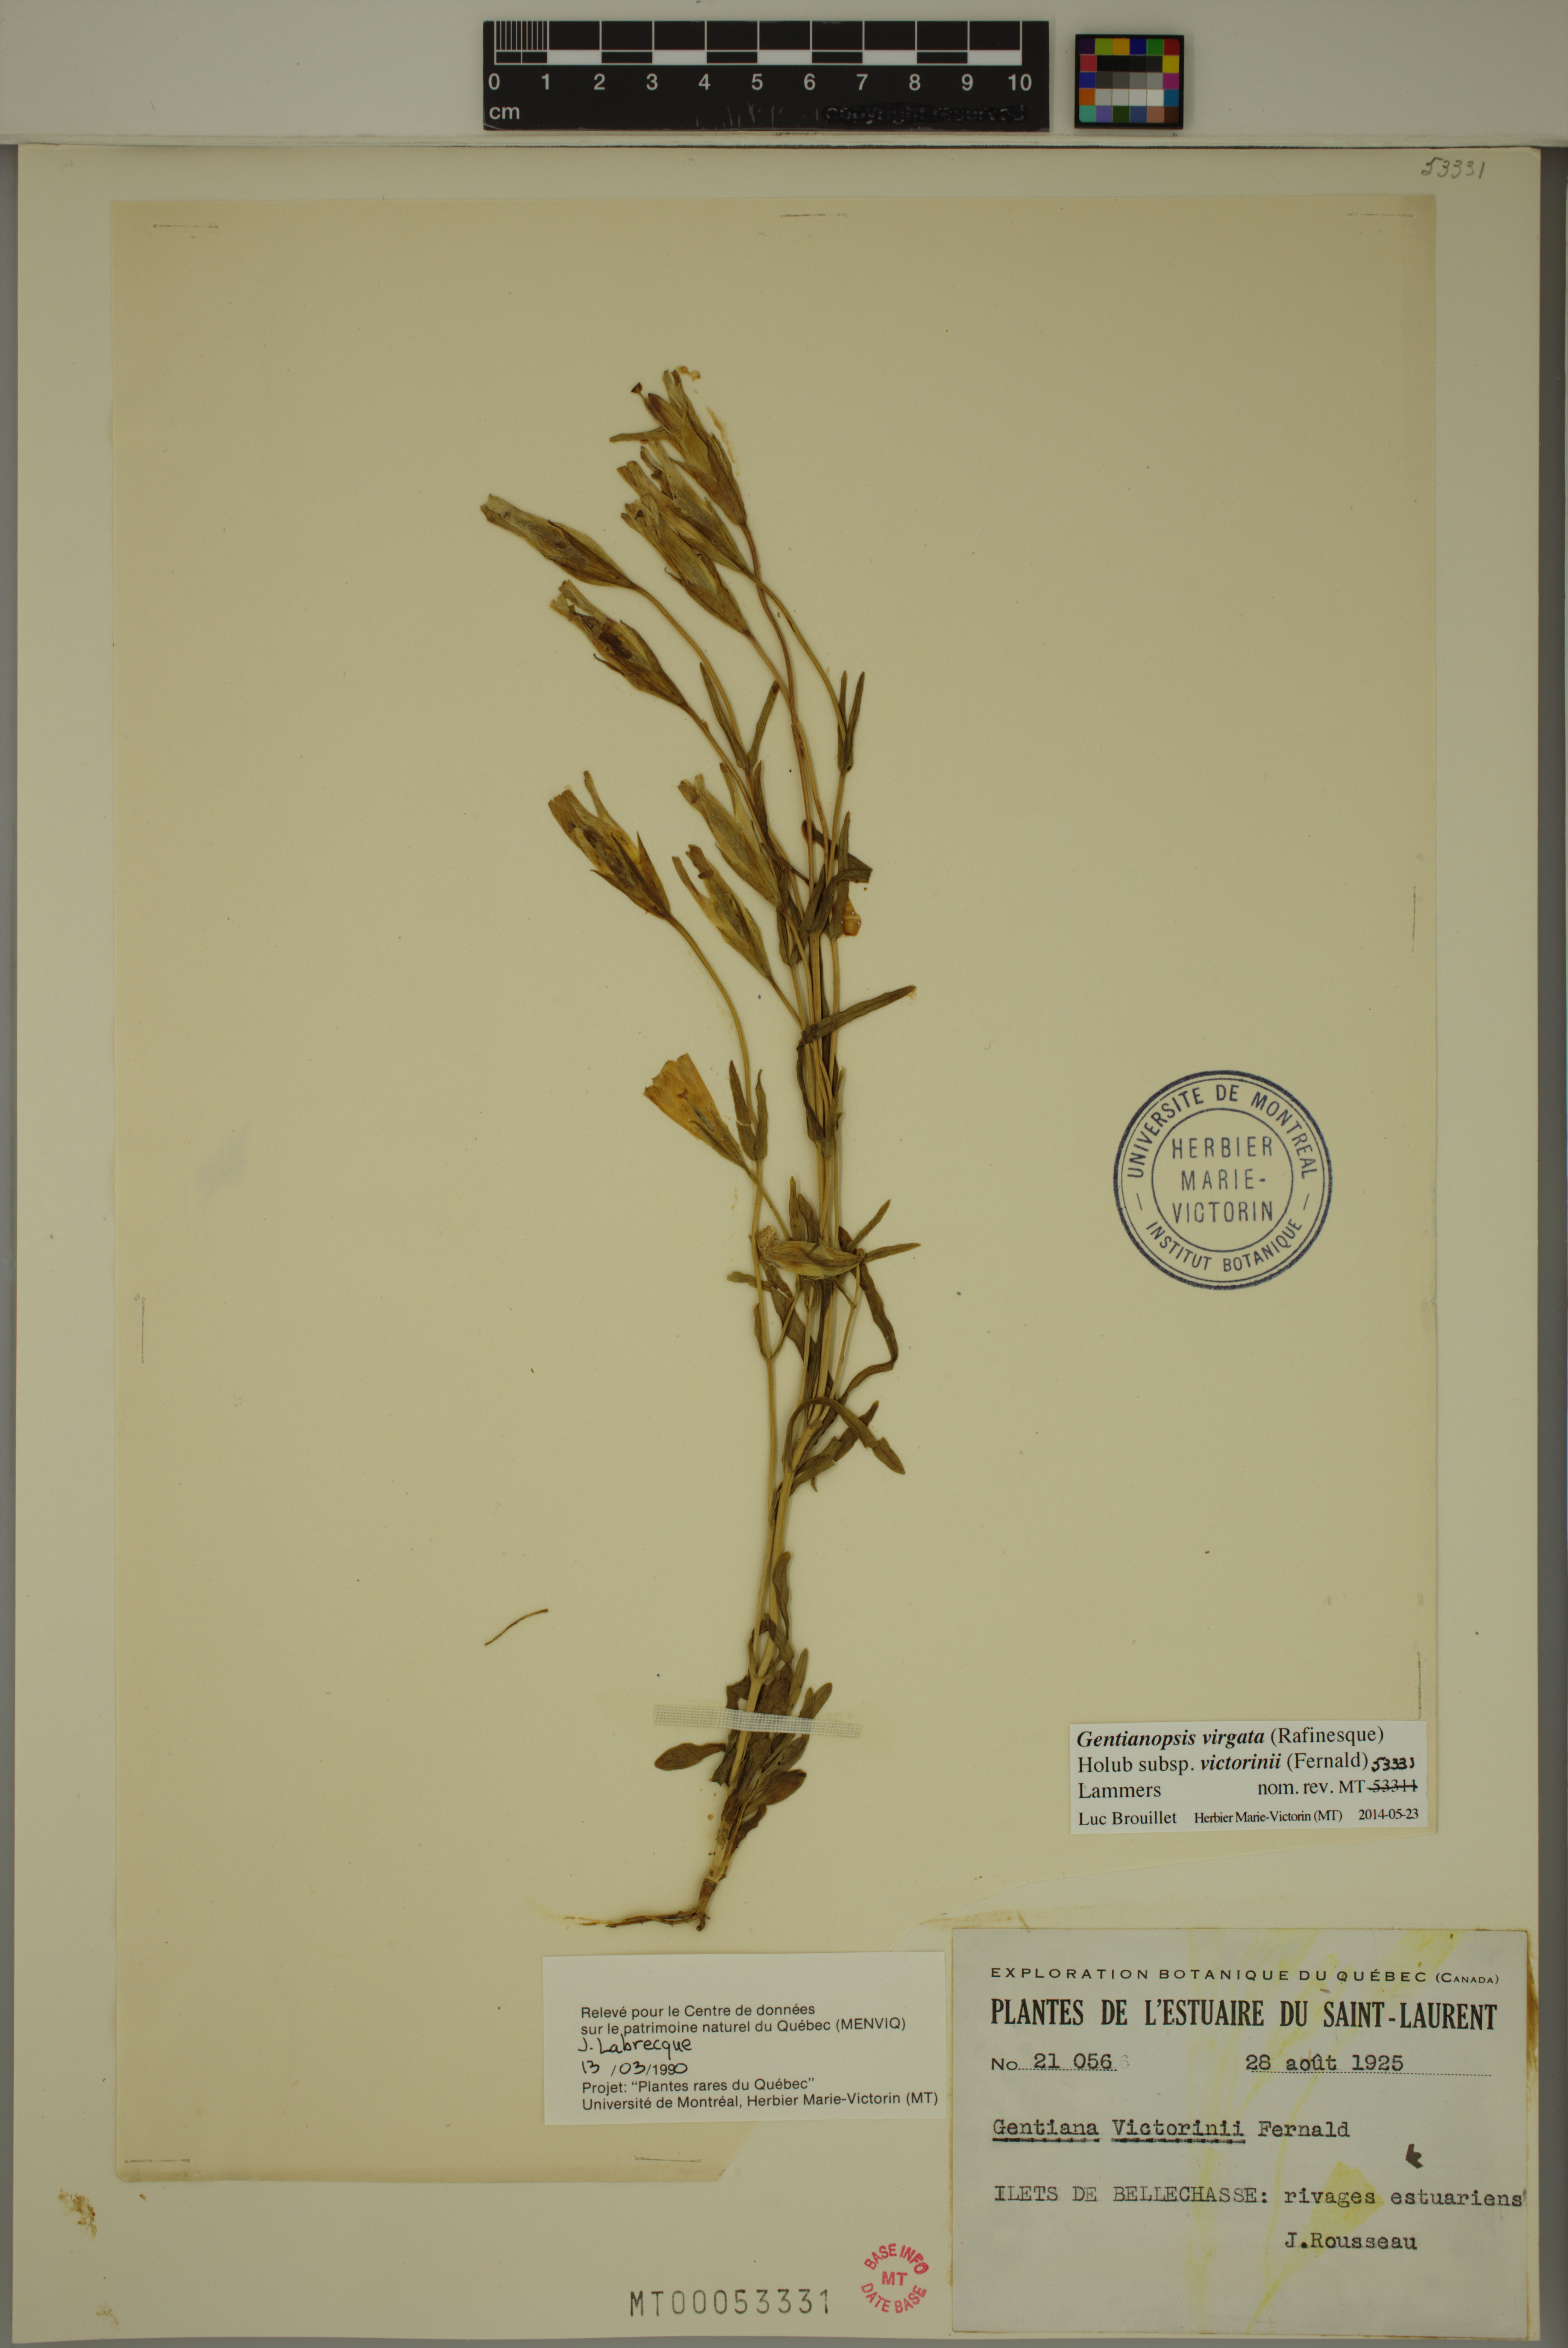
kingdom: Plantae
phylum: Tracheophyta
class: Magnoliopsida
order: Gentianales
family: Gentianaceae
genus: Gentianopsis
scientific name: Gentianopsis victorinii
